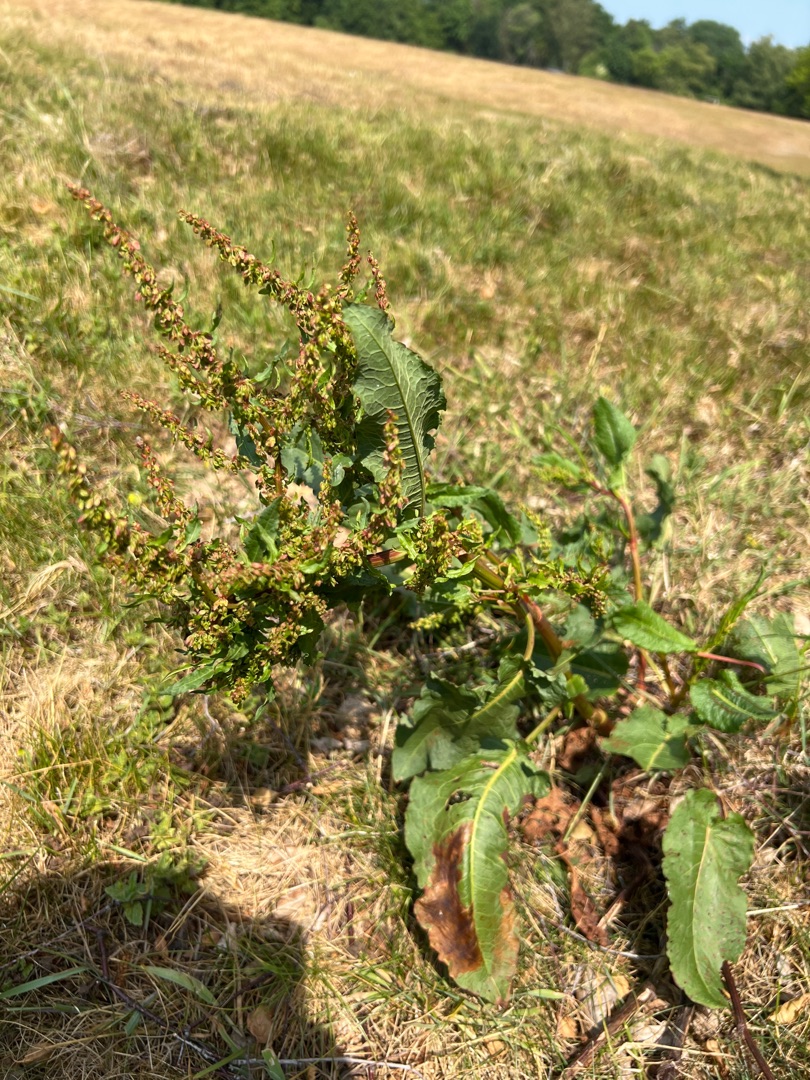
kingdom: Plantae
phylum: Tracheophyta
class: Magnoliopsida
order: Caryophyllales
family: Polygonaceae
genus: Rumex
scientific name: Rumex obtusifolius
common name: Butbladet skræppe
